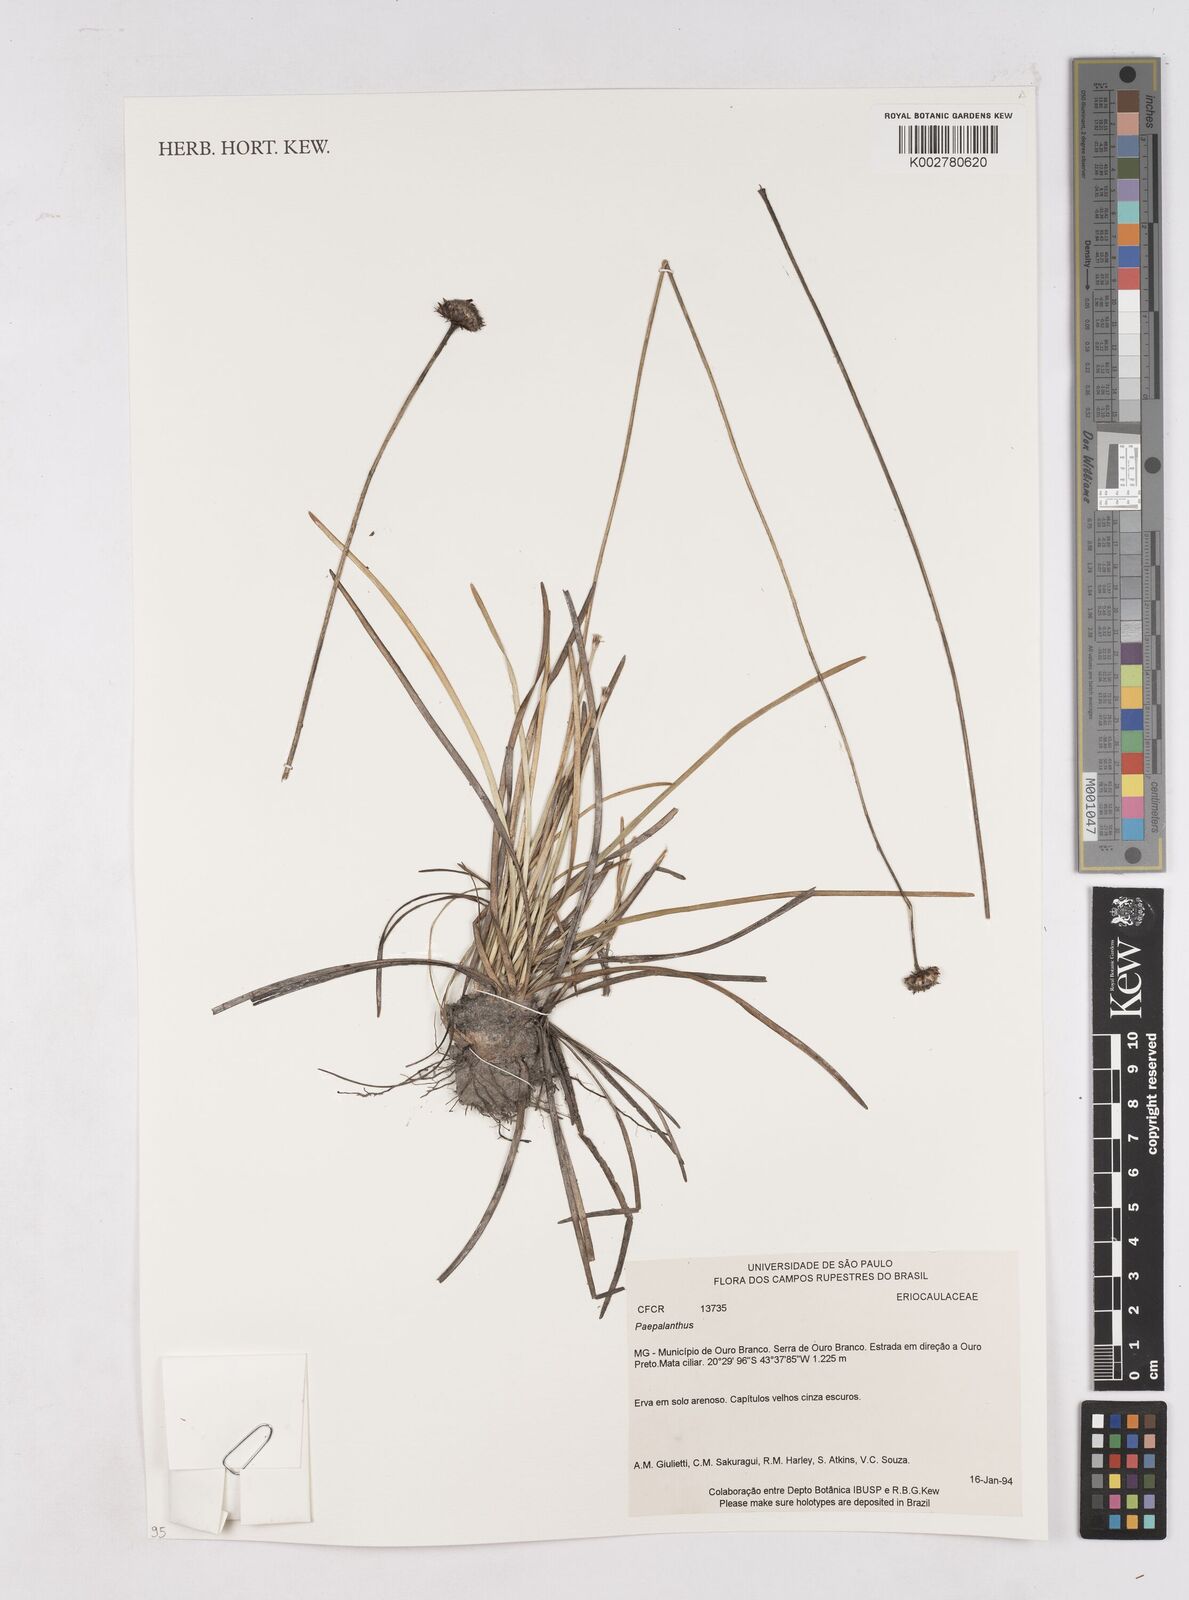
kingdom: Plantae
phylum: Tracheophyta
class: Liliopsida
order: Poales
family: Eriocaulaceae
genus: Paepalanthus
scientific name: Paepalanthus
